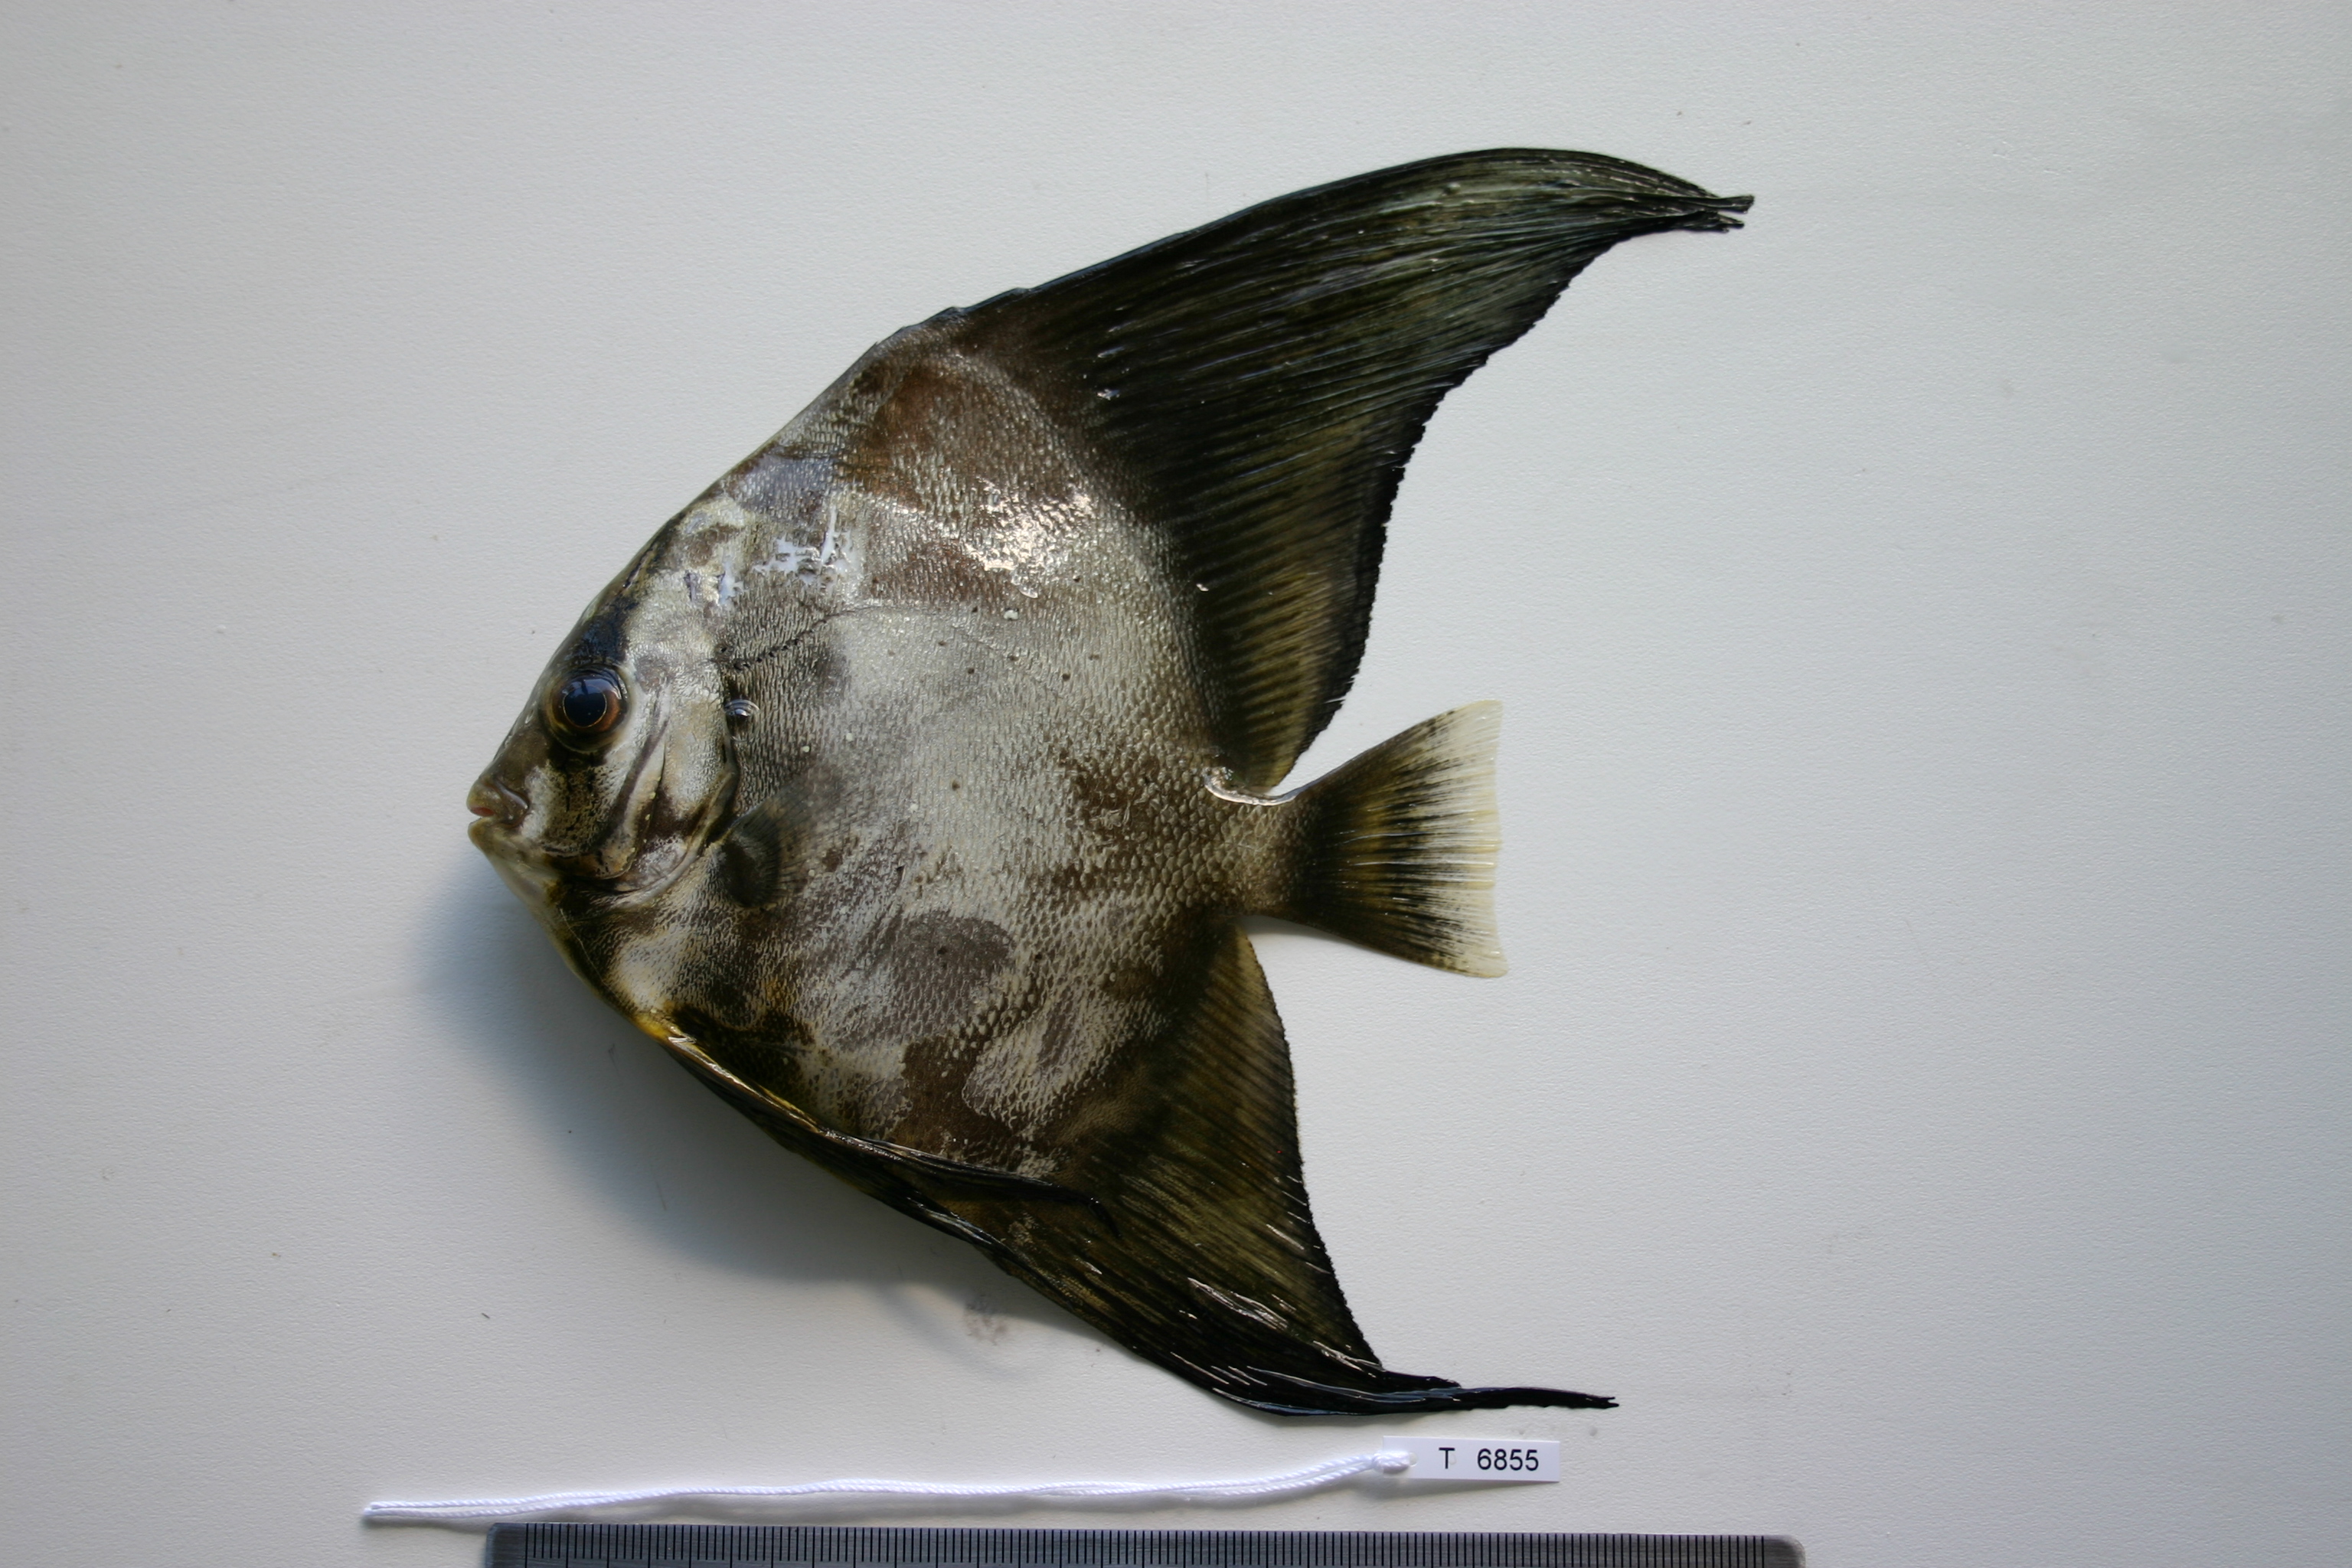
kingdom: Animalia
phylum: Chordata
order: Perciformes
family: Ephippidae
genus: Platax
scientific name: Platax orbicularis
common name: Batfish
